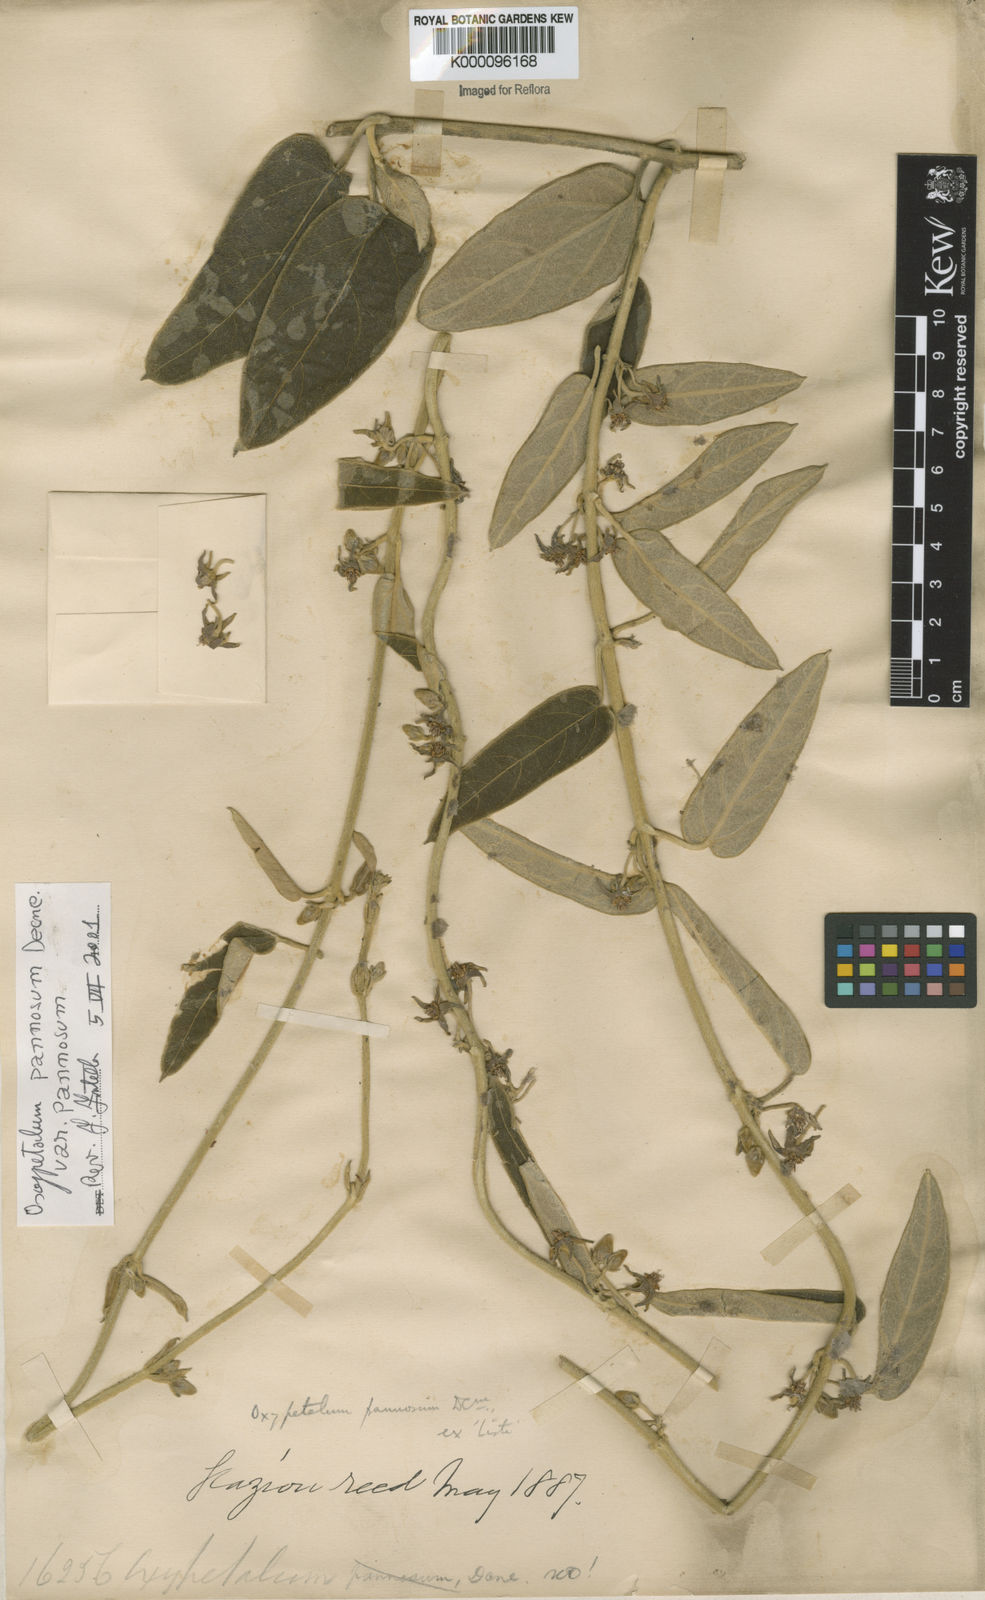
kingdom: Plantae
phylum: Tracheophyta
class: Magnoliopsida
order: Gentianales
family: Apocynaceae
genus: Oxypetalum
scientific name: Oxypetalum pannosum
